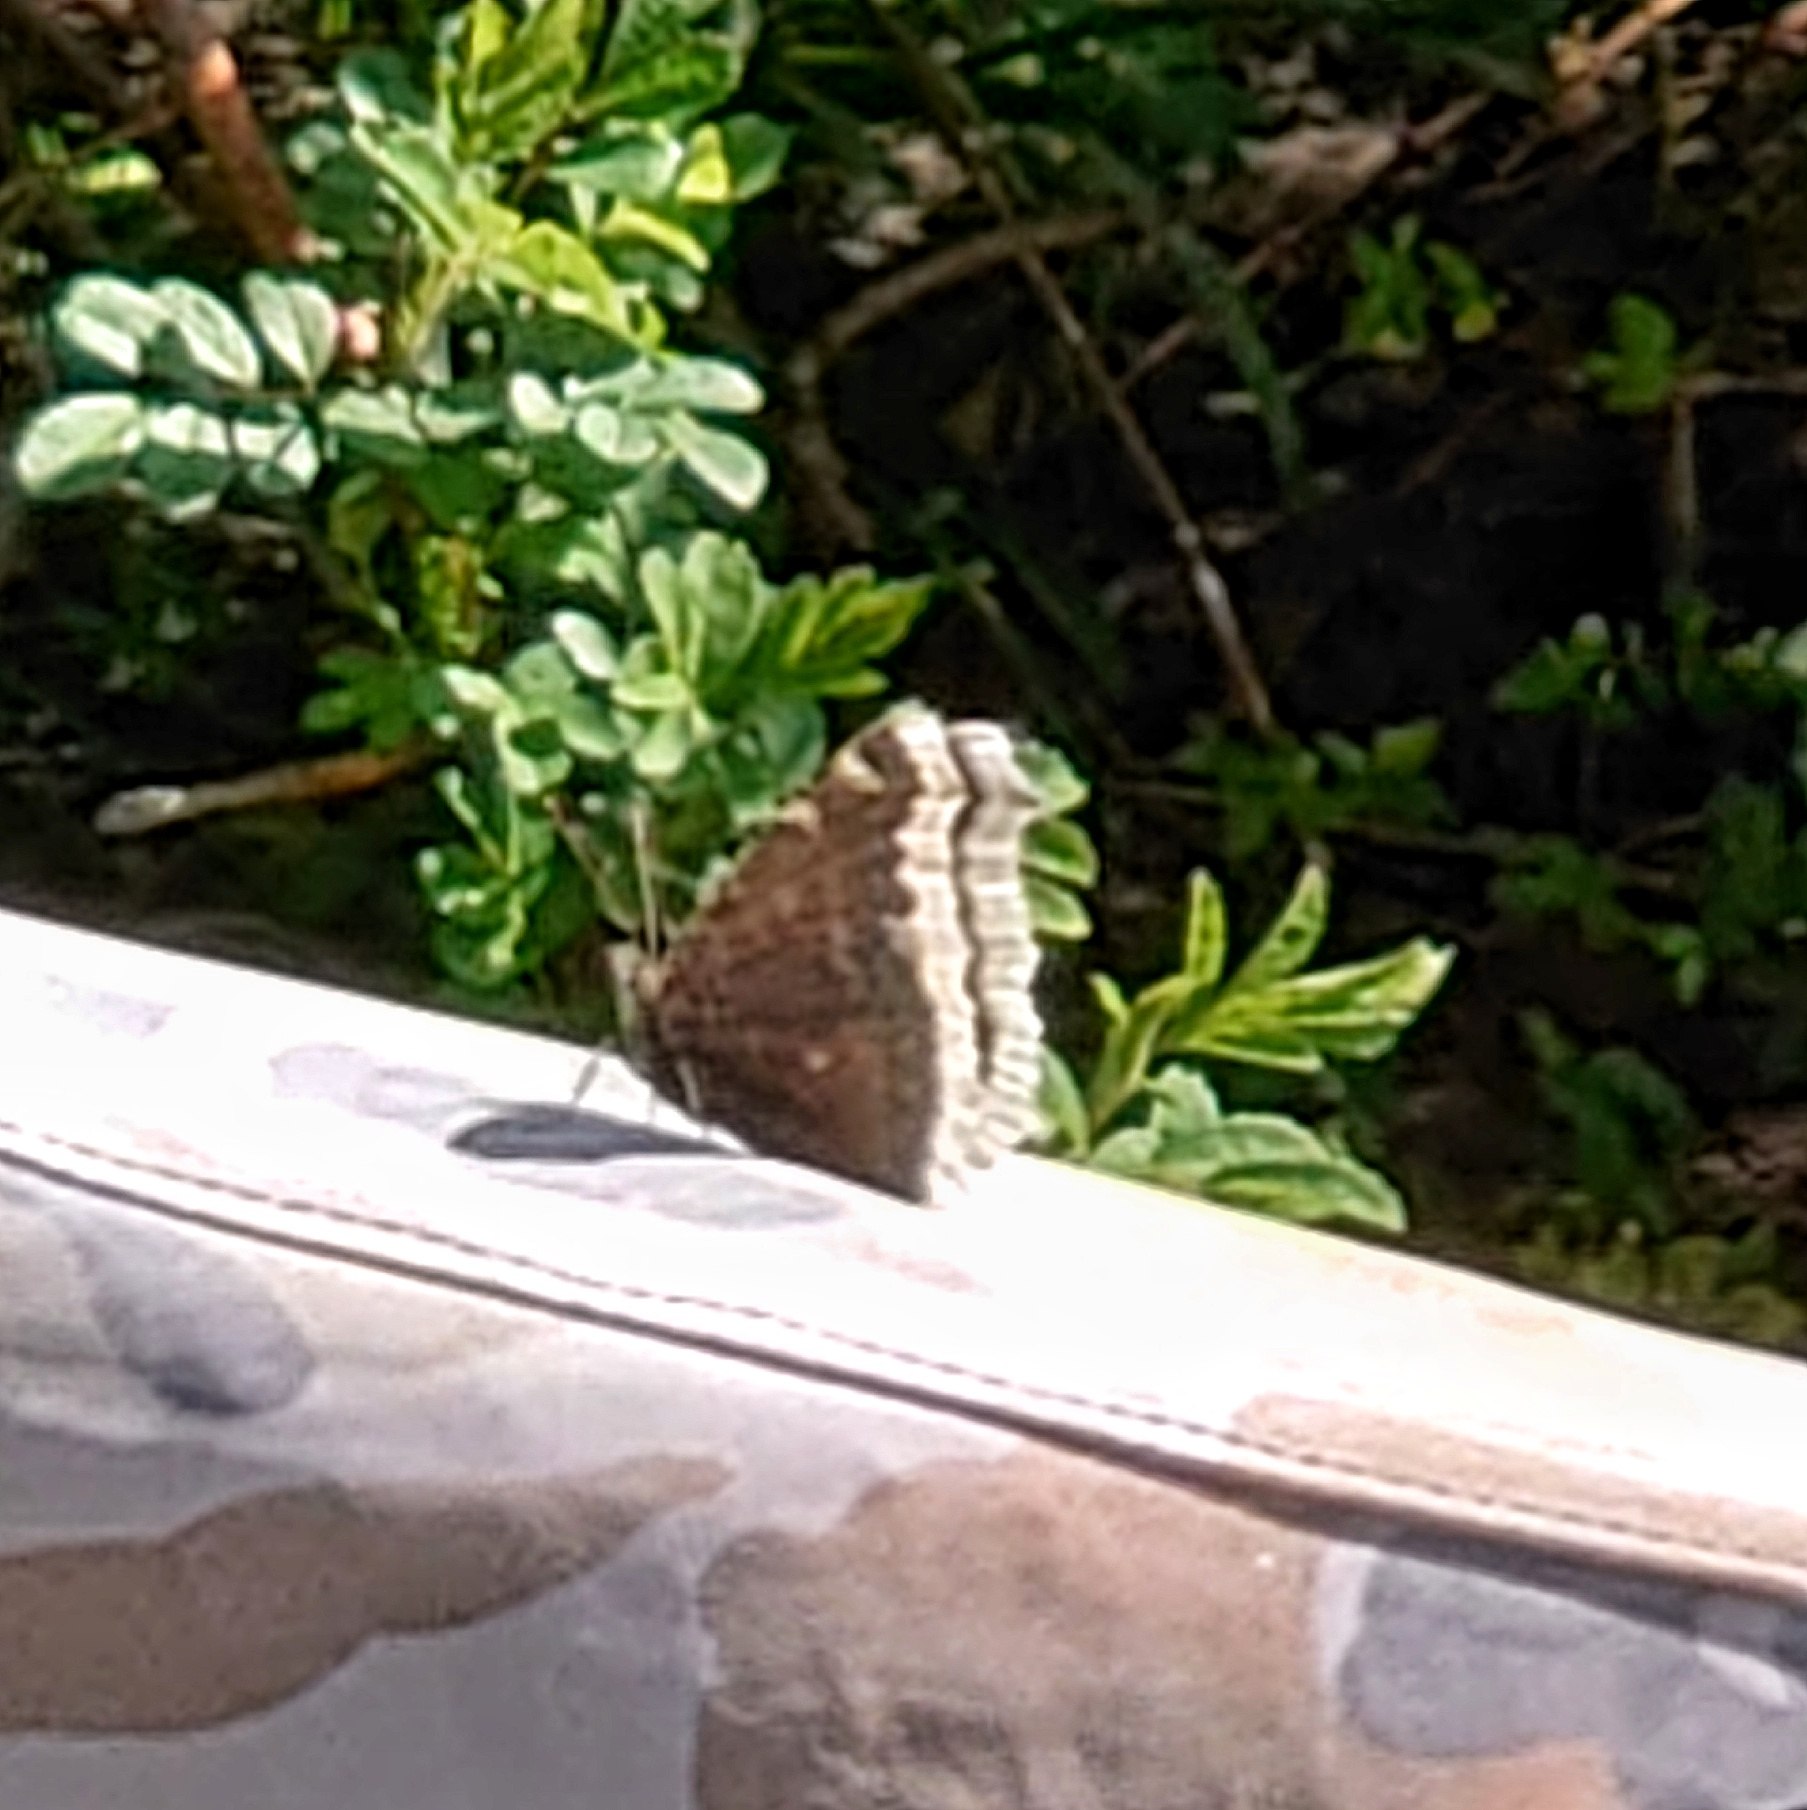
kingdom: Animalia
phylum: Arthropoda
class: Insecta
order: Lepidoptera
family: Nymphalidae
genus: Nymphalis
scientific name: Nymphalis antiopa
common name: Sørgekåbe
